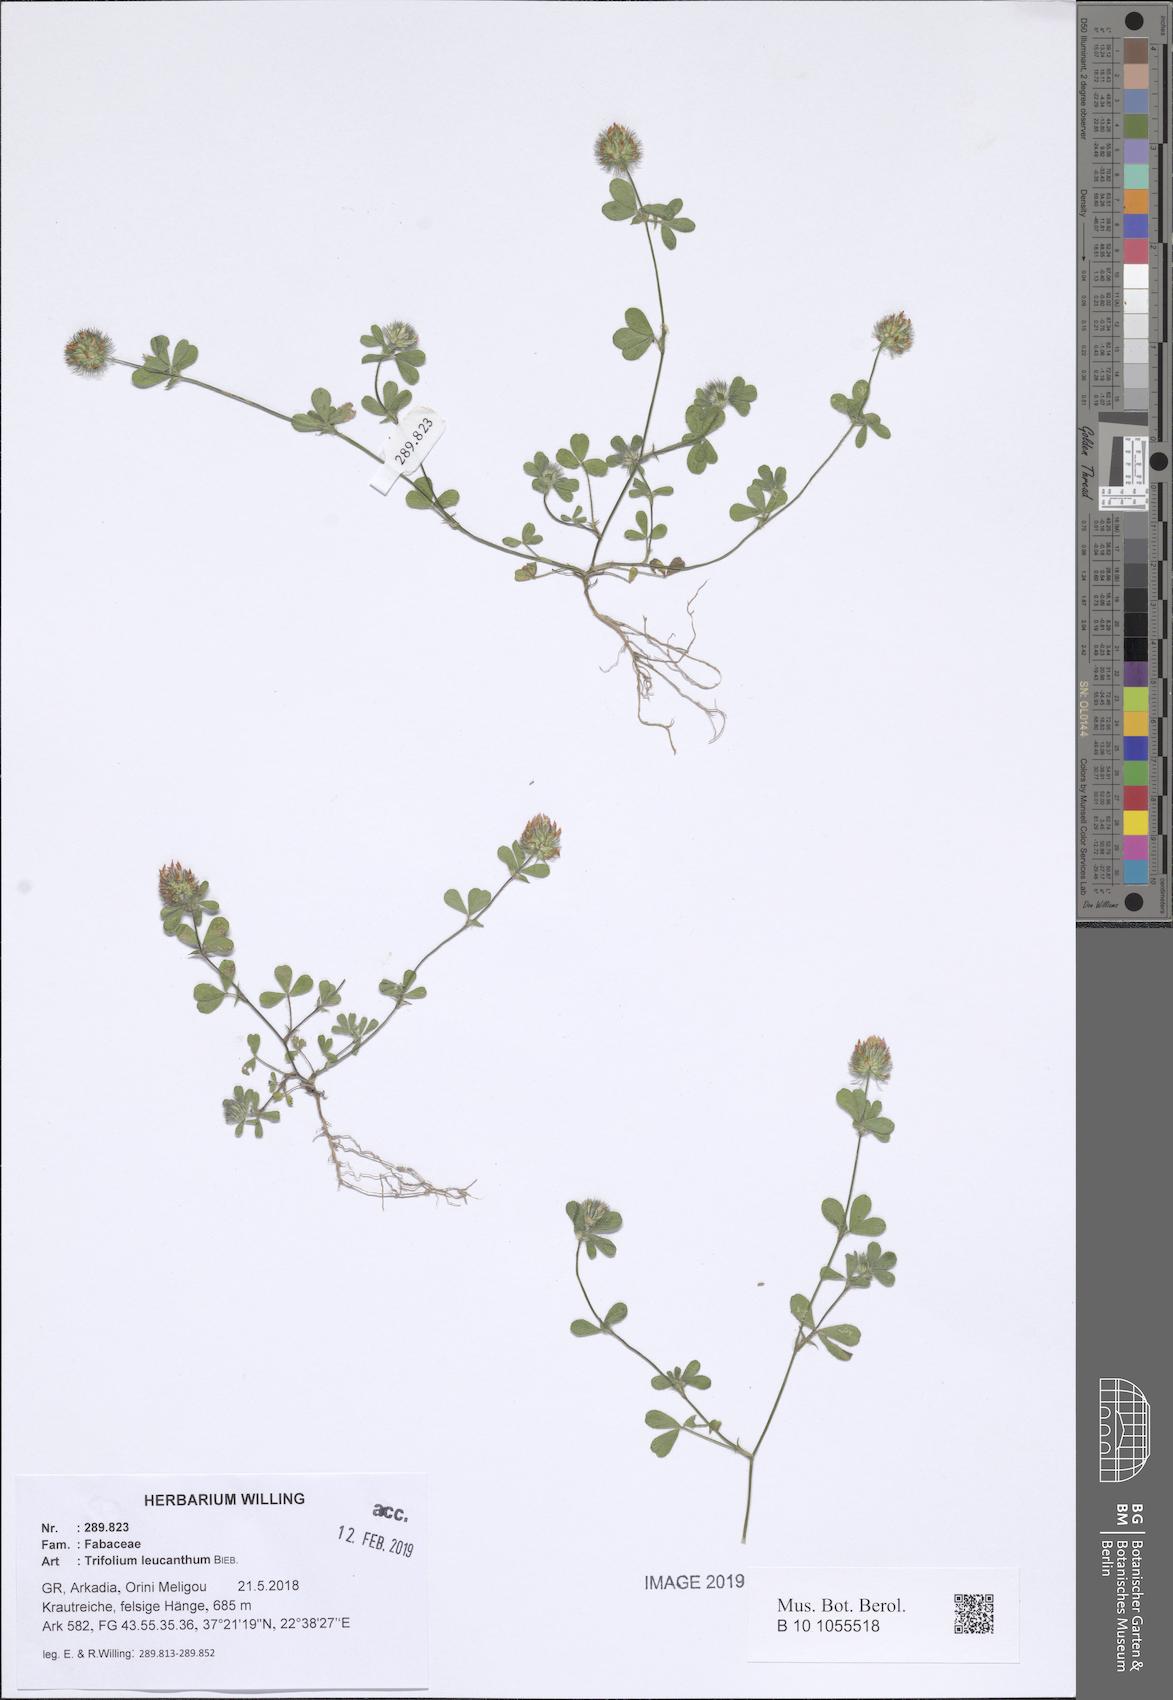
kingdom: Plantae
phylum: Tracheophyta
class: Magnoliopsida
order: Fabales
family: Fabaceae
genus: Trifolium
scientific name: Trifolium leucanthum
